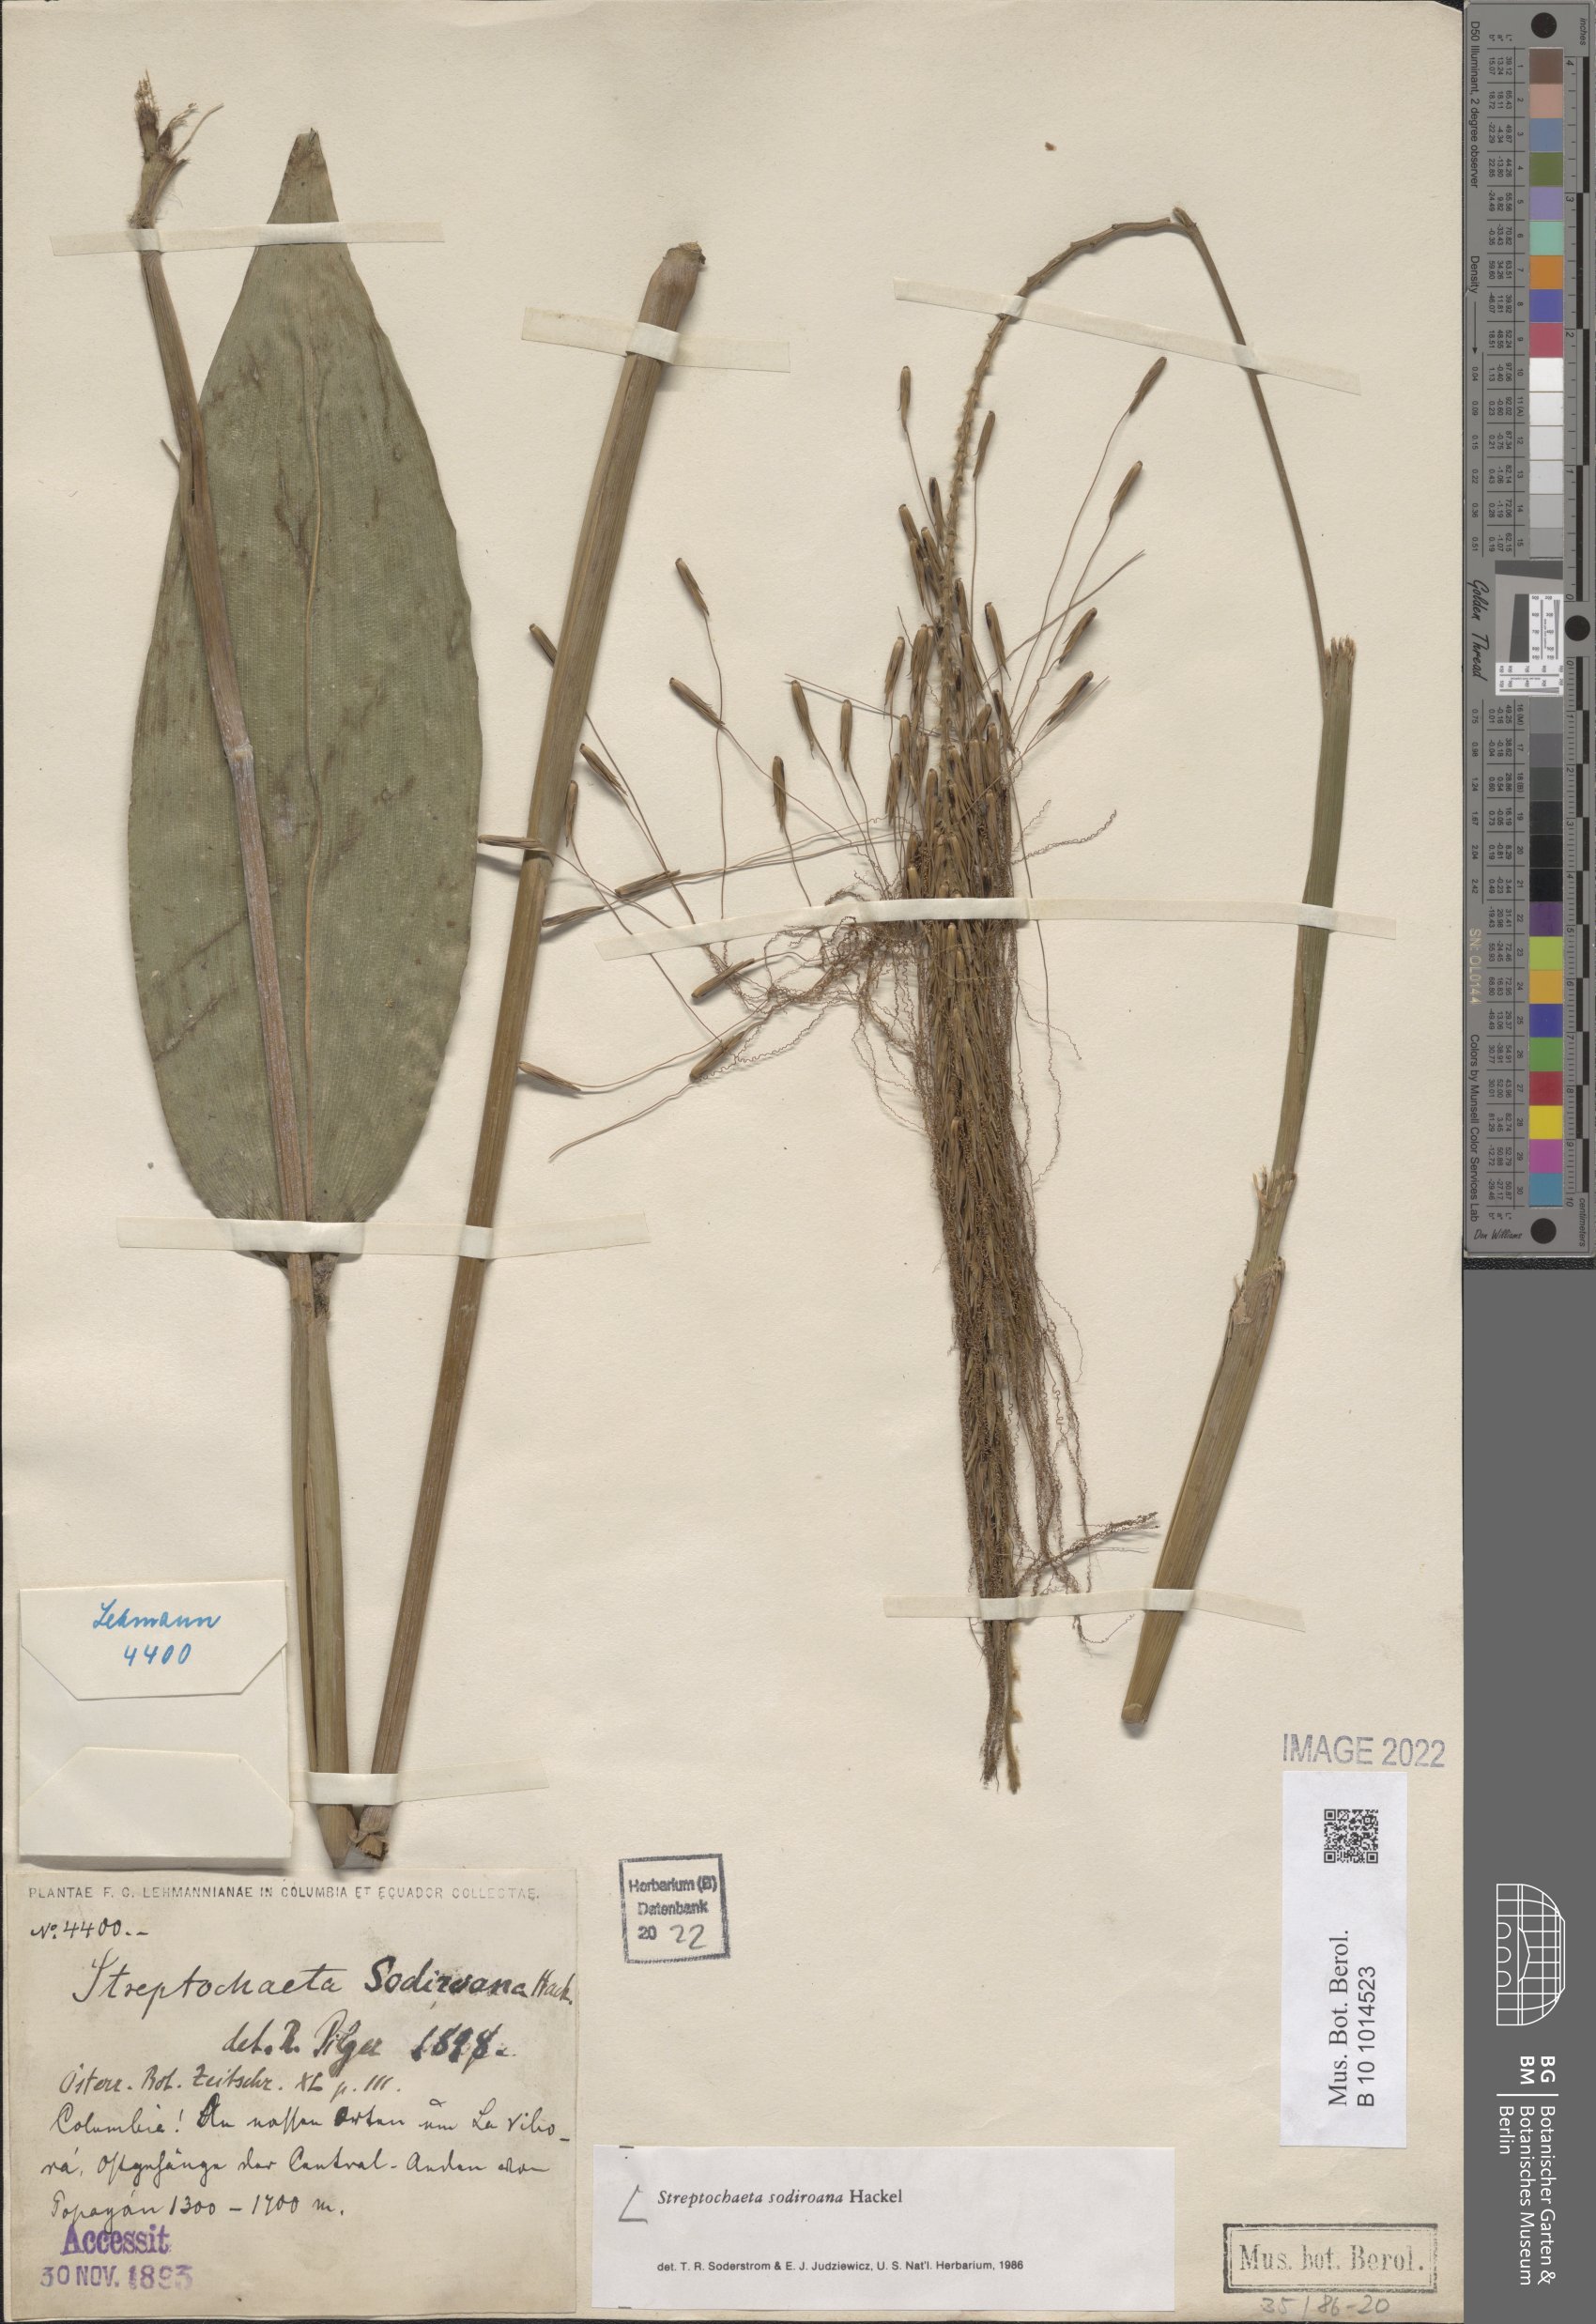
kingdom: Plantae
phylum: Tracheophyta
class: Liliopsida
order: Poales
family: Poaceae
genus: Streptochaeta
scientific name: Streptochaeta sodiroana
